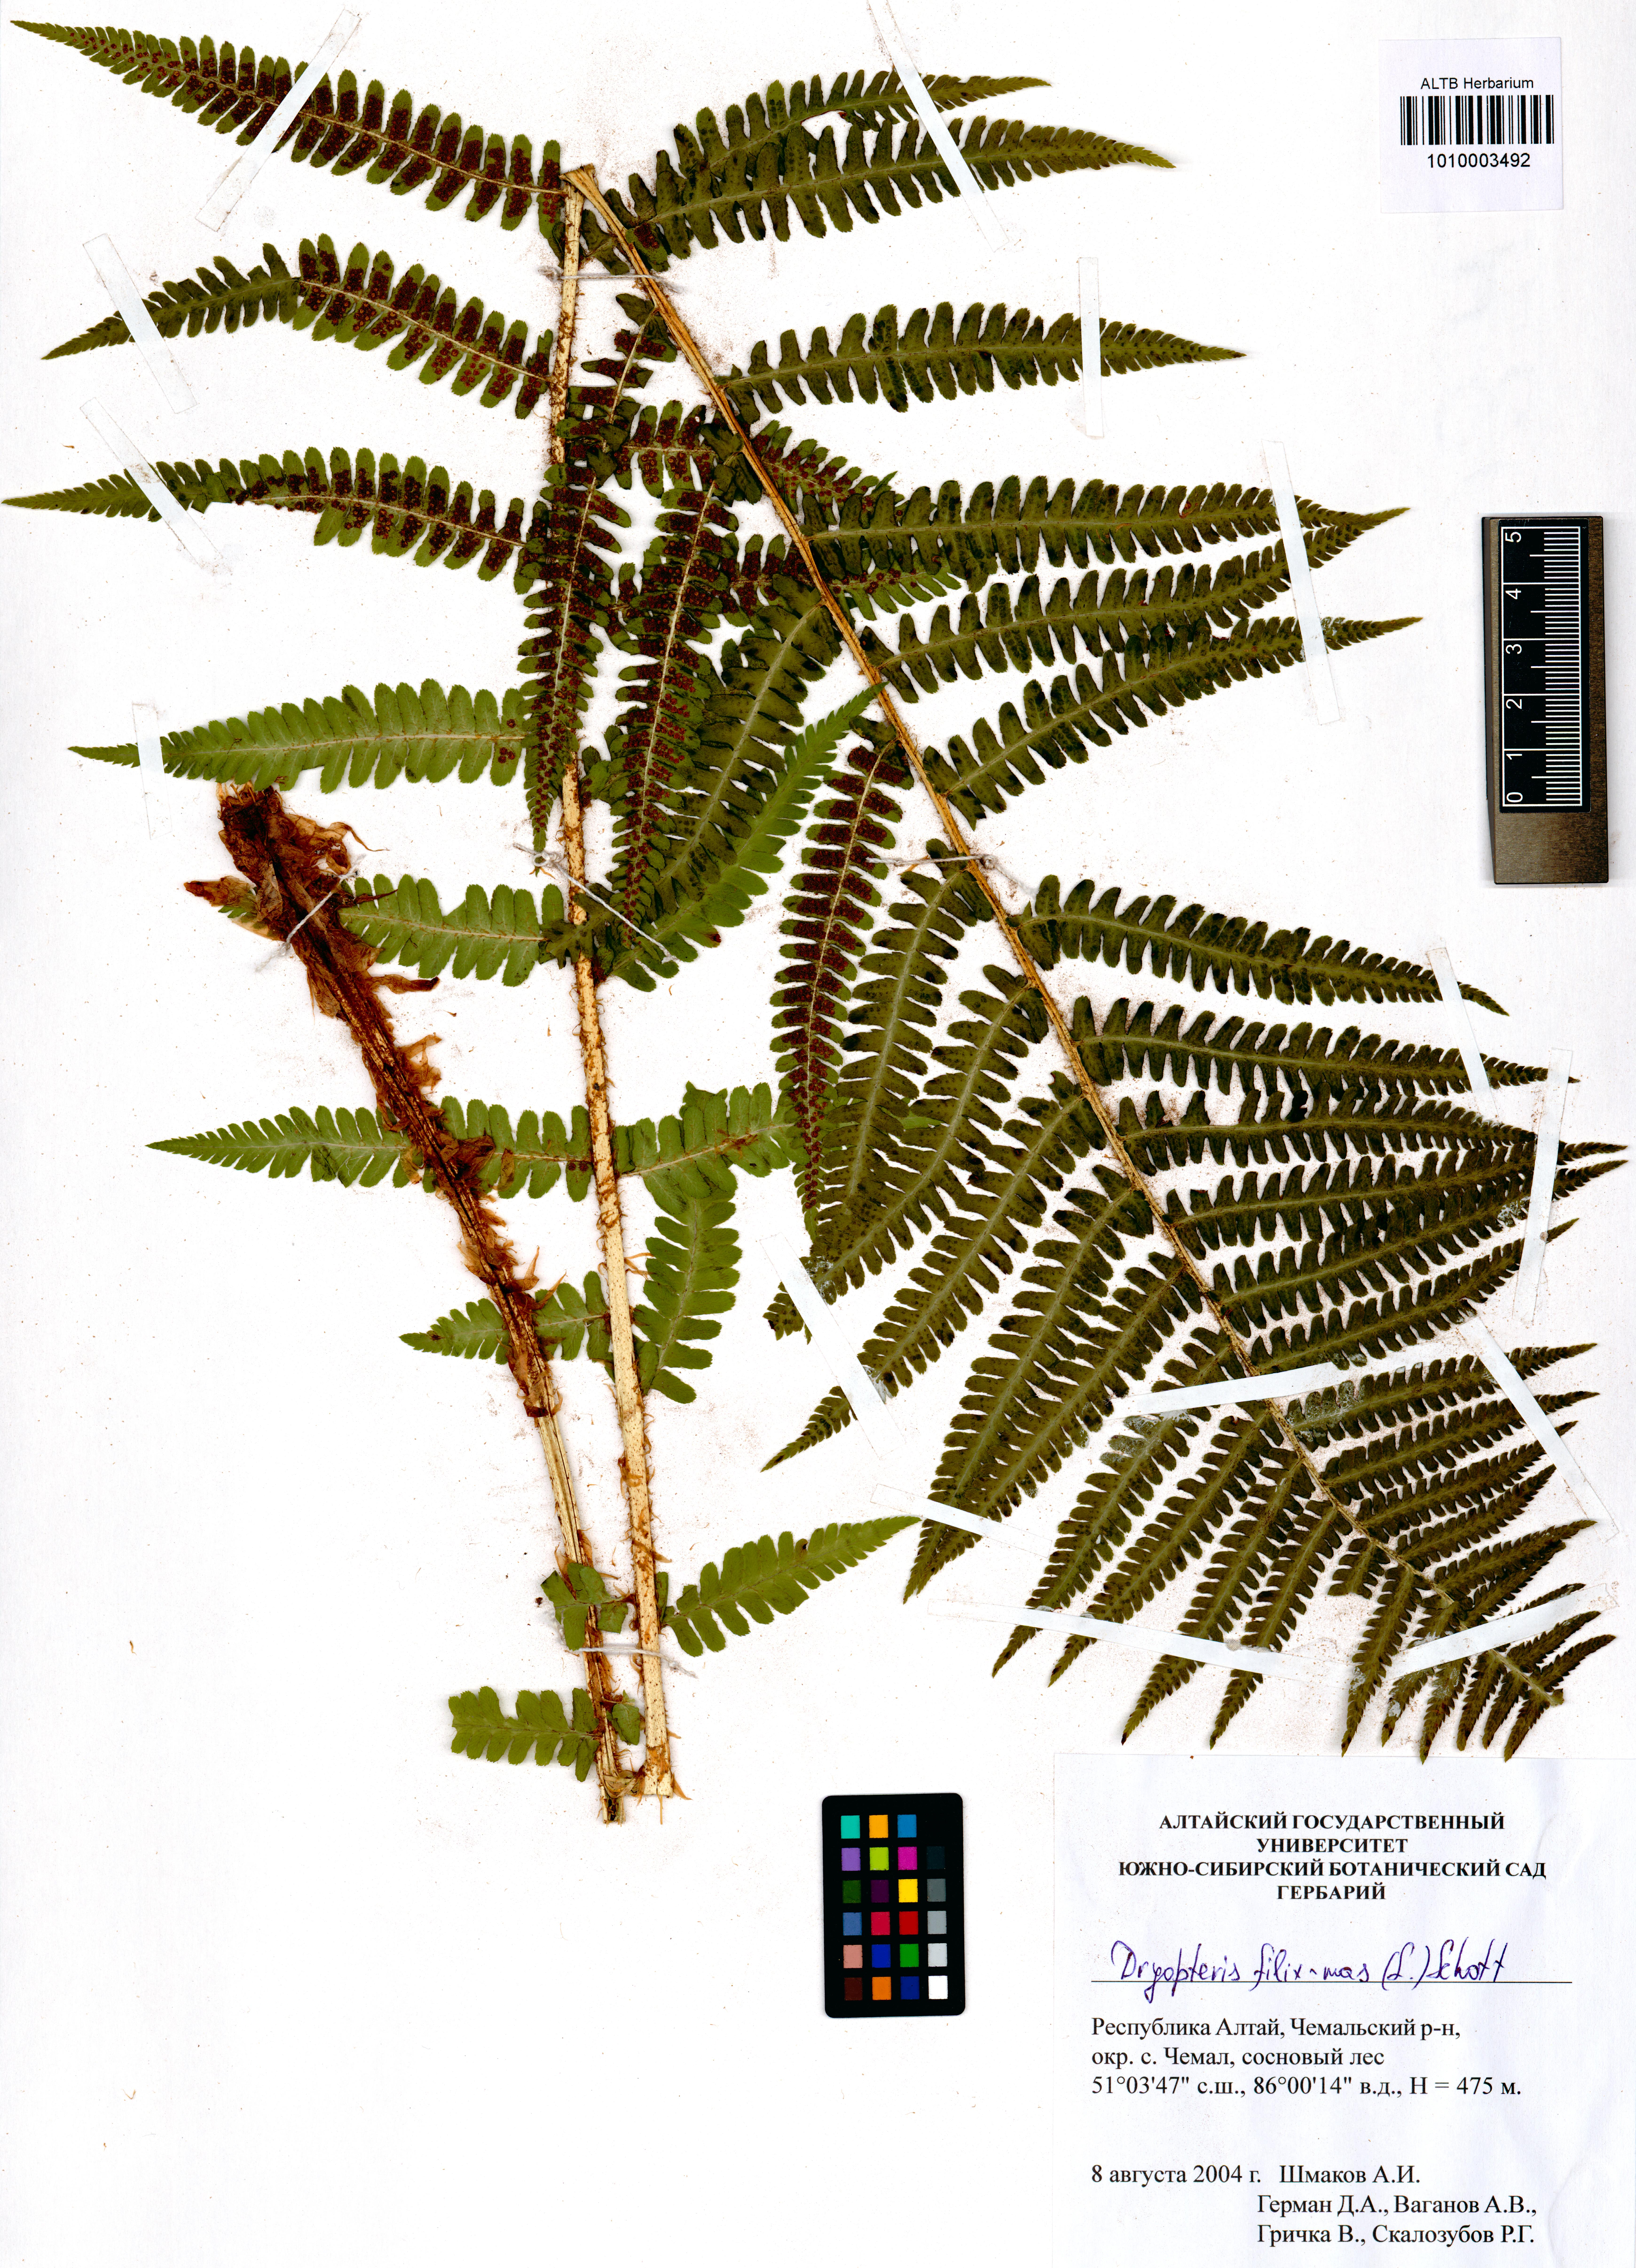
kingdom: Plantae
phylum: Tracheophyta
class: Polypodiopsida
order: Polypodiales
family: Dryopteridaceae
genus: Dryopteris
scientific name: Dryopteris filix-mas
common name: Male fern
